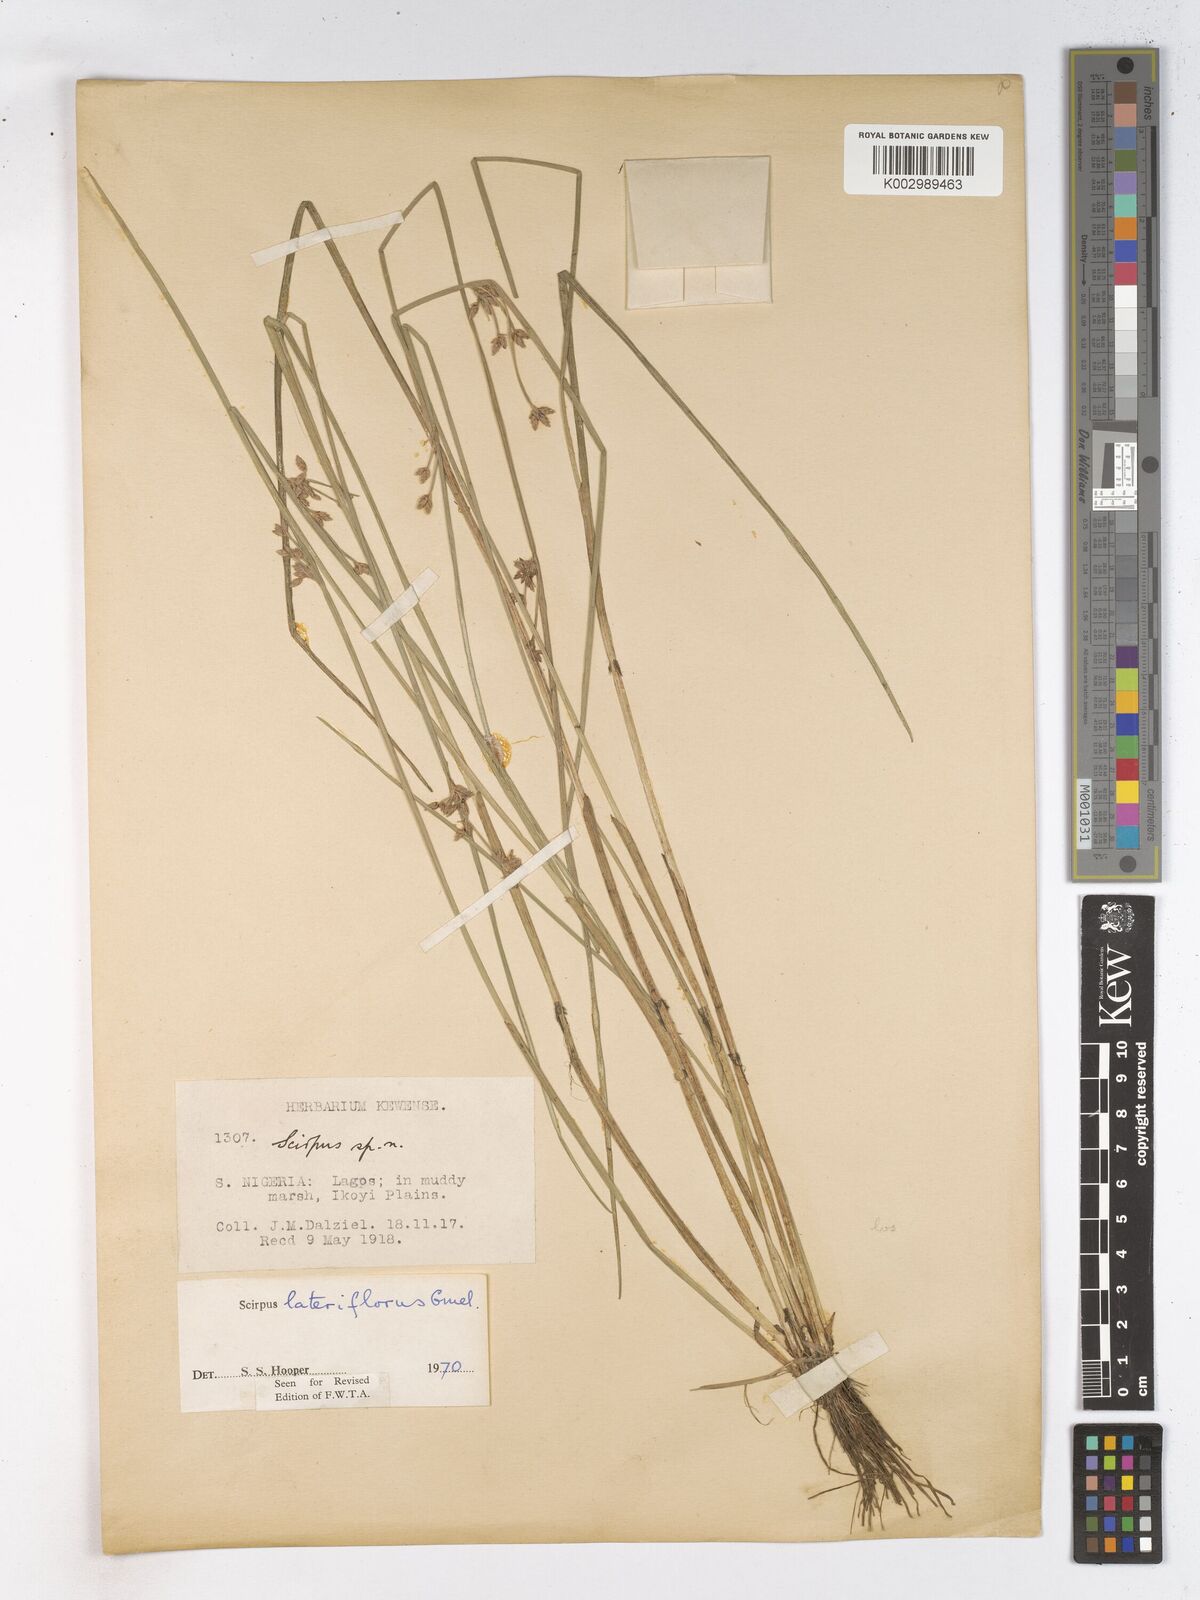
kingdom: Plantae
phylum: Tracheophyta
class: Liliopsida
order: Poales
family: Cyperaceae
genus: Schoenoplectiella
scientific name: Schoenoplectiella lateriflora
